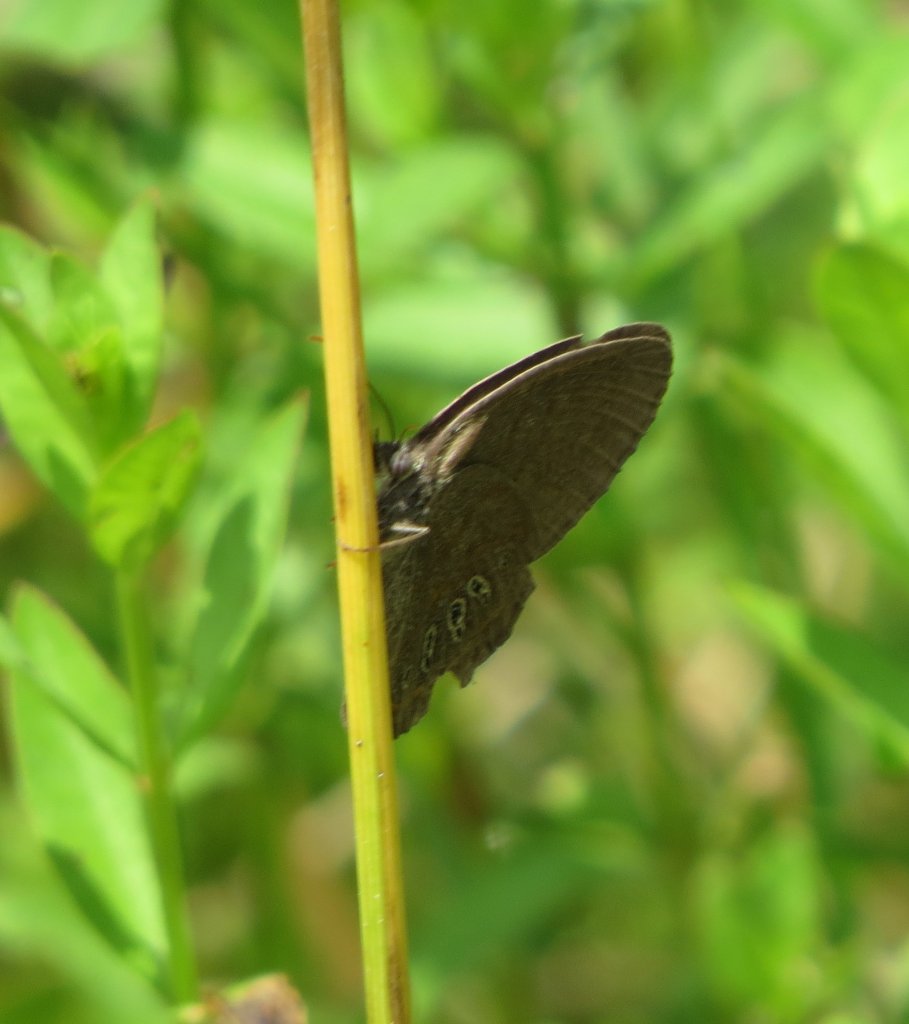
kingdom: Animalia
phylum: Arthropoda
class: Insecta
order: Lepidoptera
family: Nymphalidae
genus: Euptychia
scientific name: Euptychia phocion
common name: Georgia Satyr
